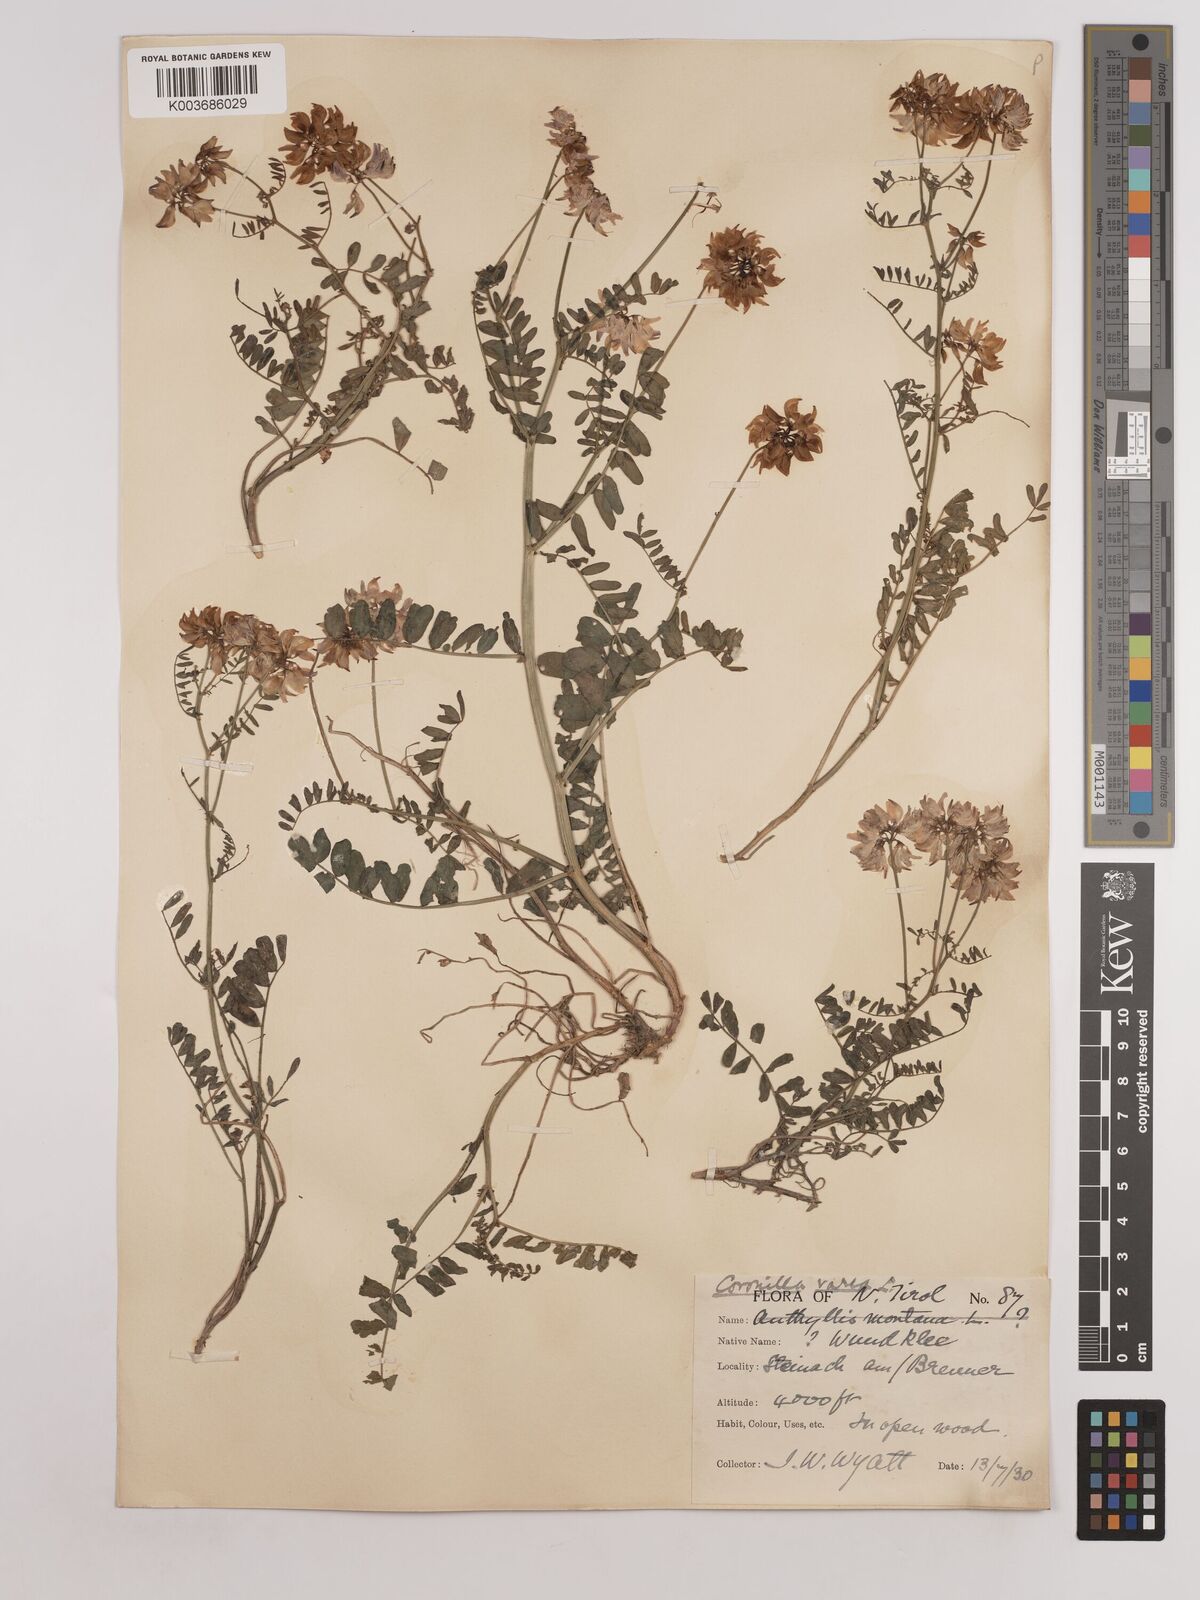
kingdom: Plantae
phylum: Tracheophyta
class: Magnoliopsida
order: Fabales
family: Fabaceae
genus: Coronilla
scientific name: Coronilla varia
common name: Crownvetch
